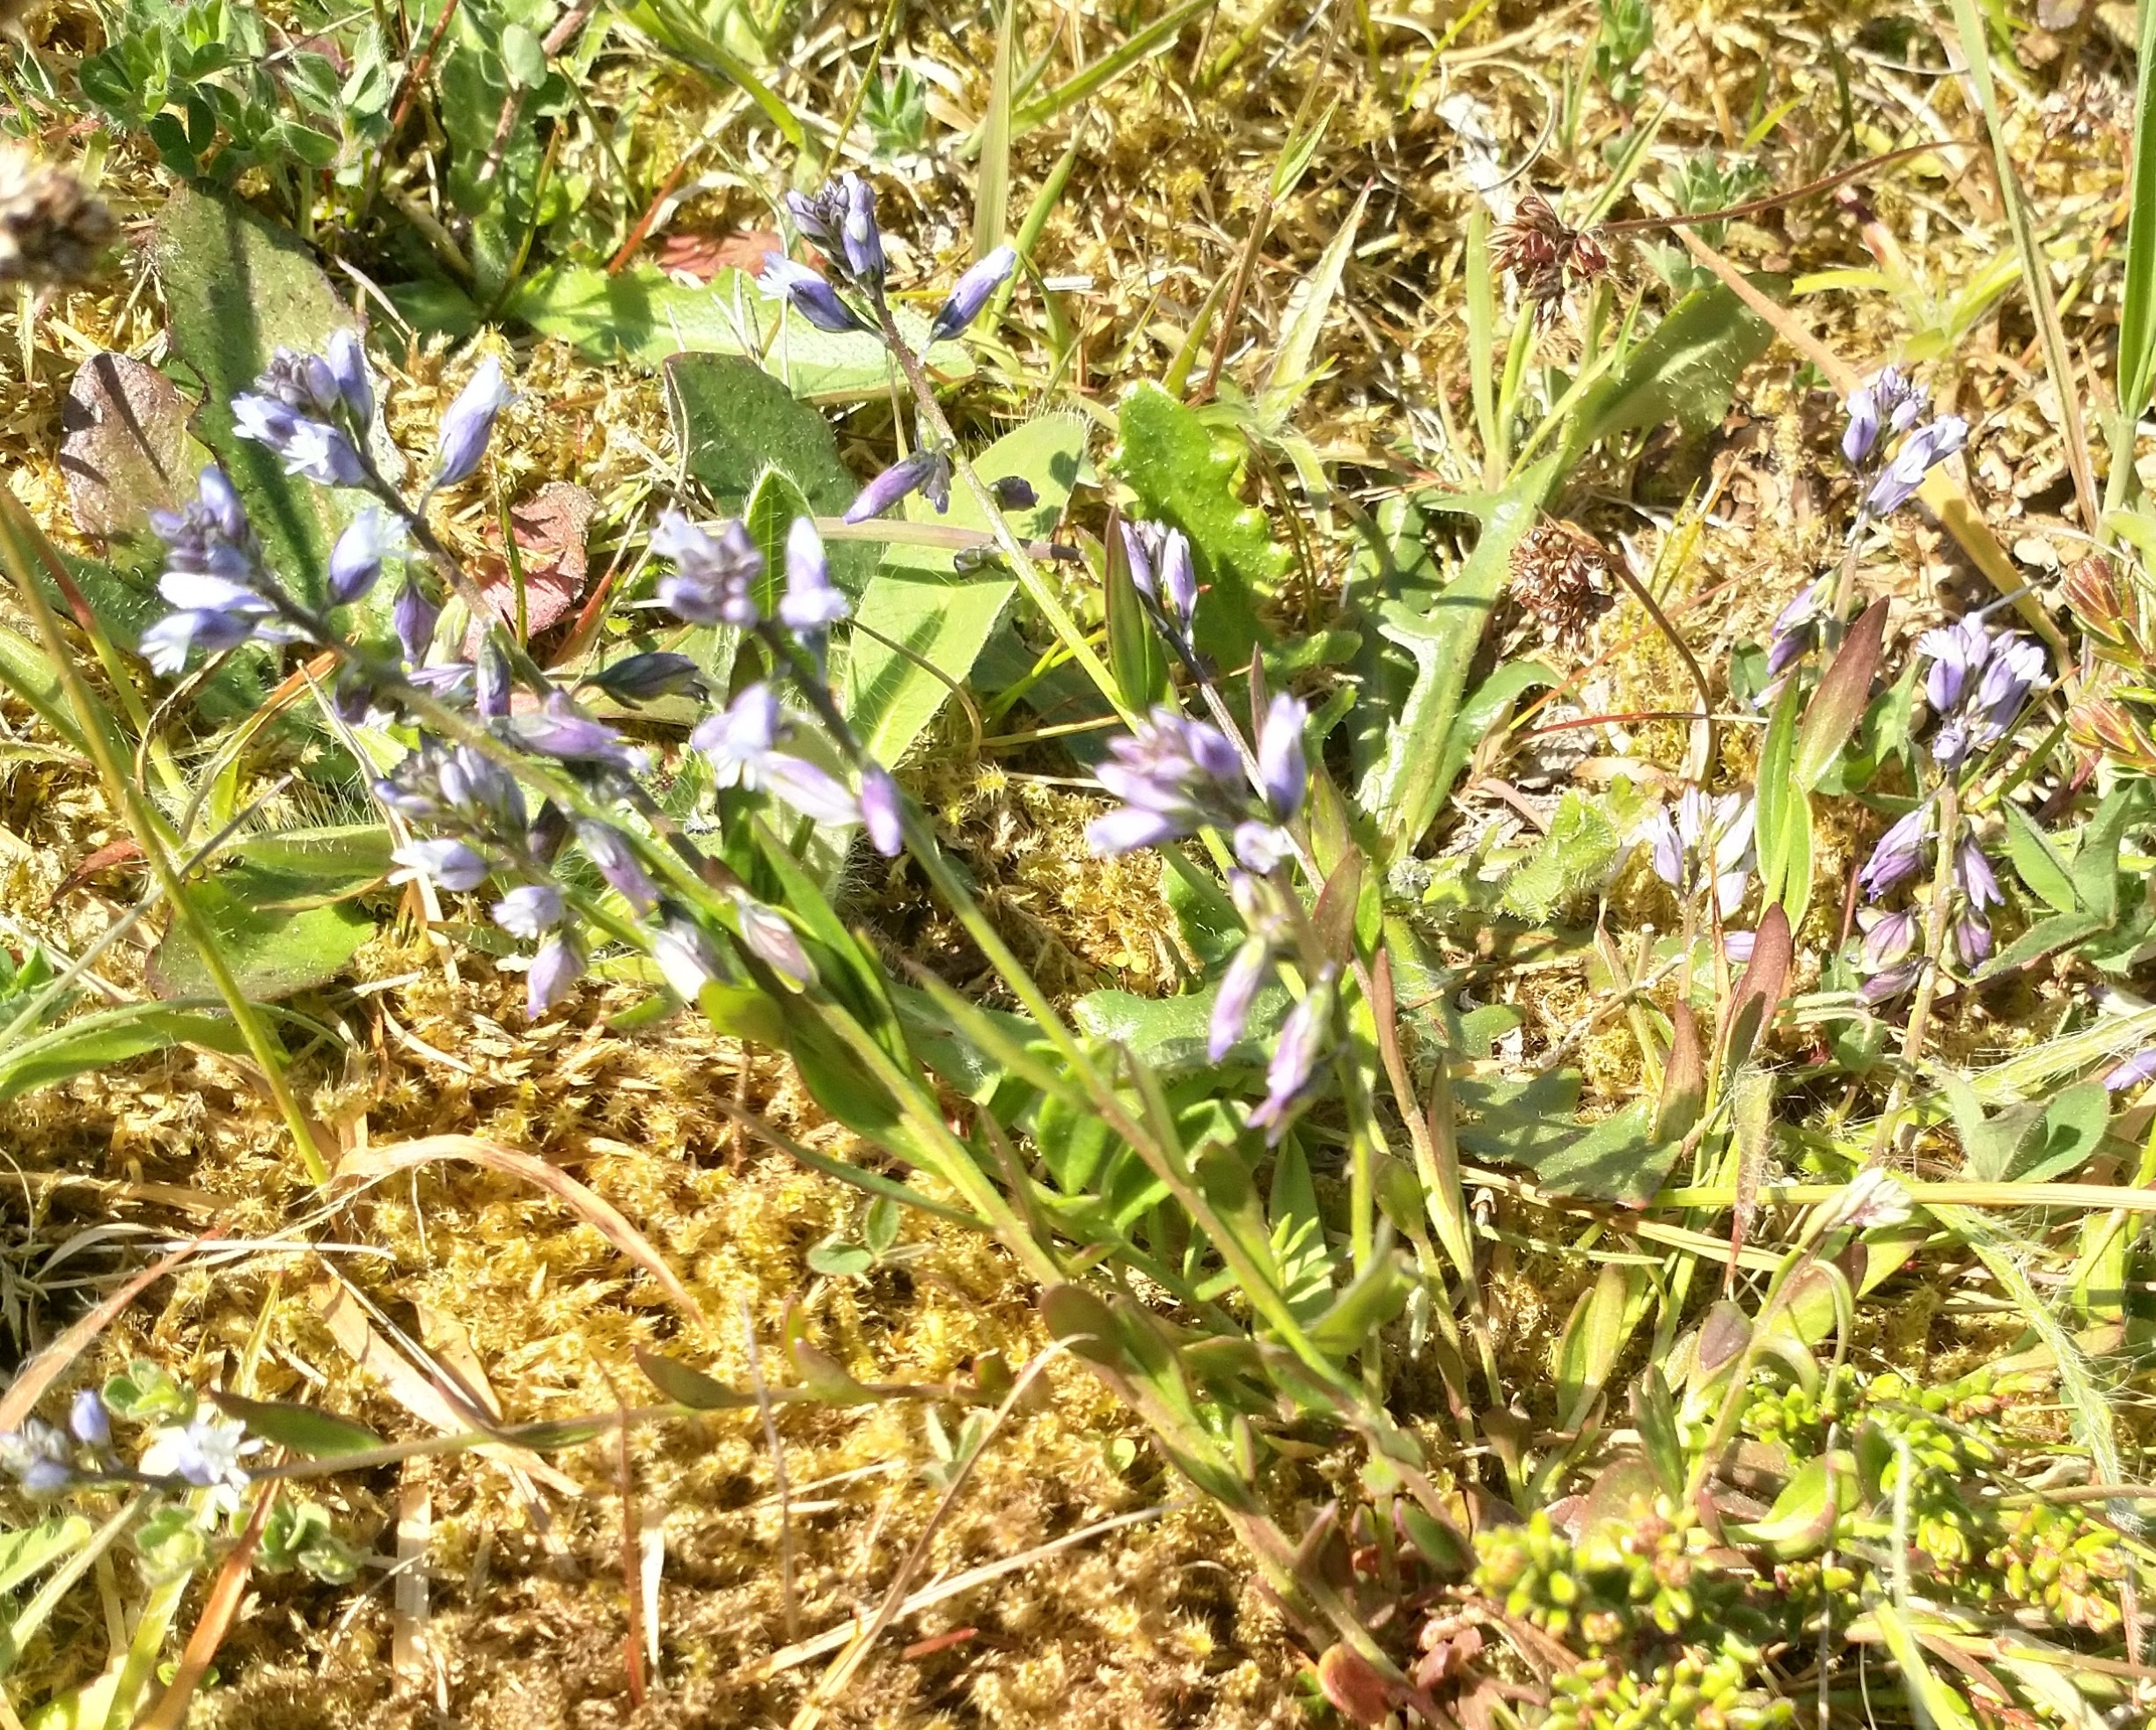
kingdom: Plantae
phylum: Tracheophyta
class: Magnoliopsida
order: Fabales
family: Polygalaceae
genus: Polygala
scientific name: Polygala vulgaris
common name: Almindelig mælkeurt
